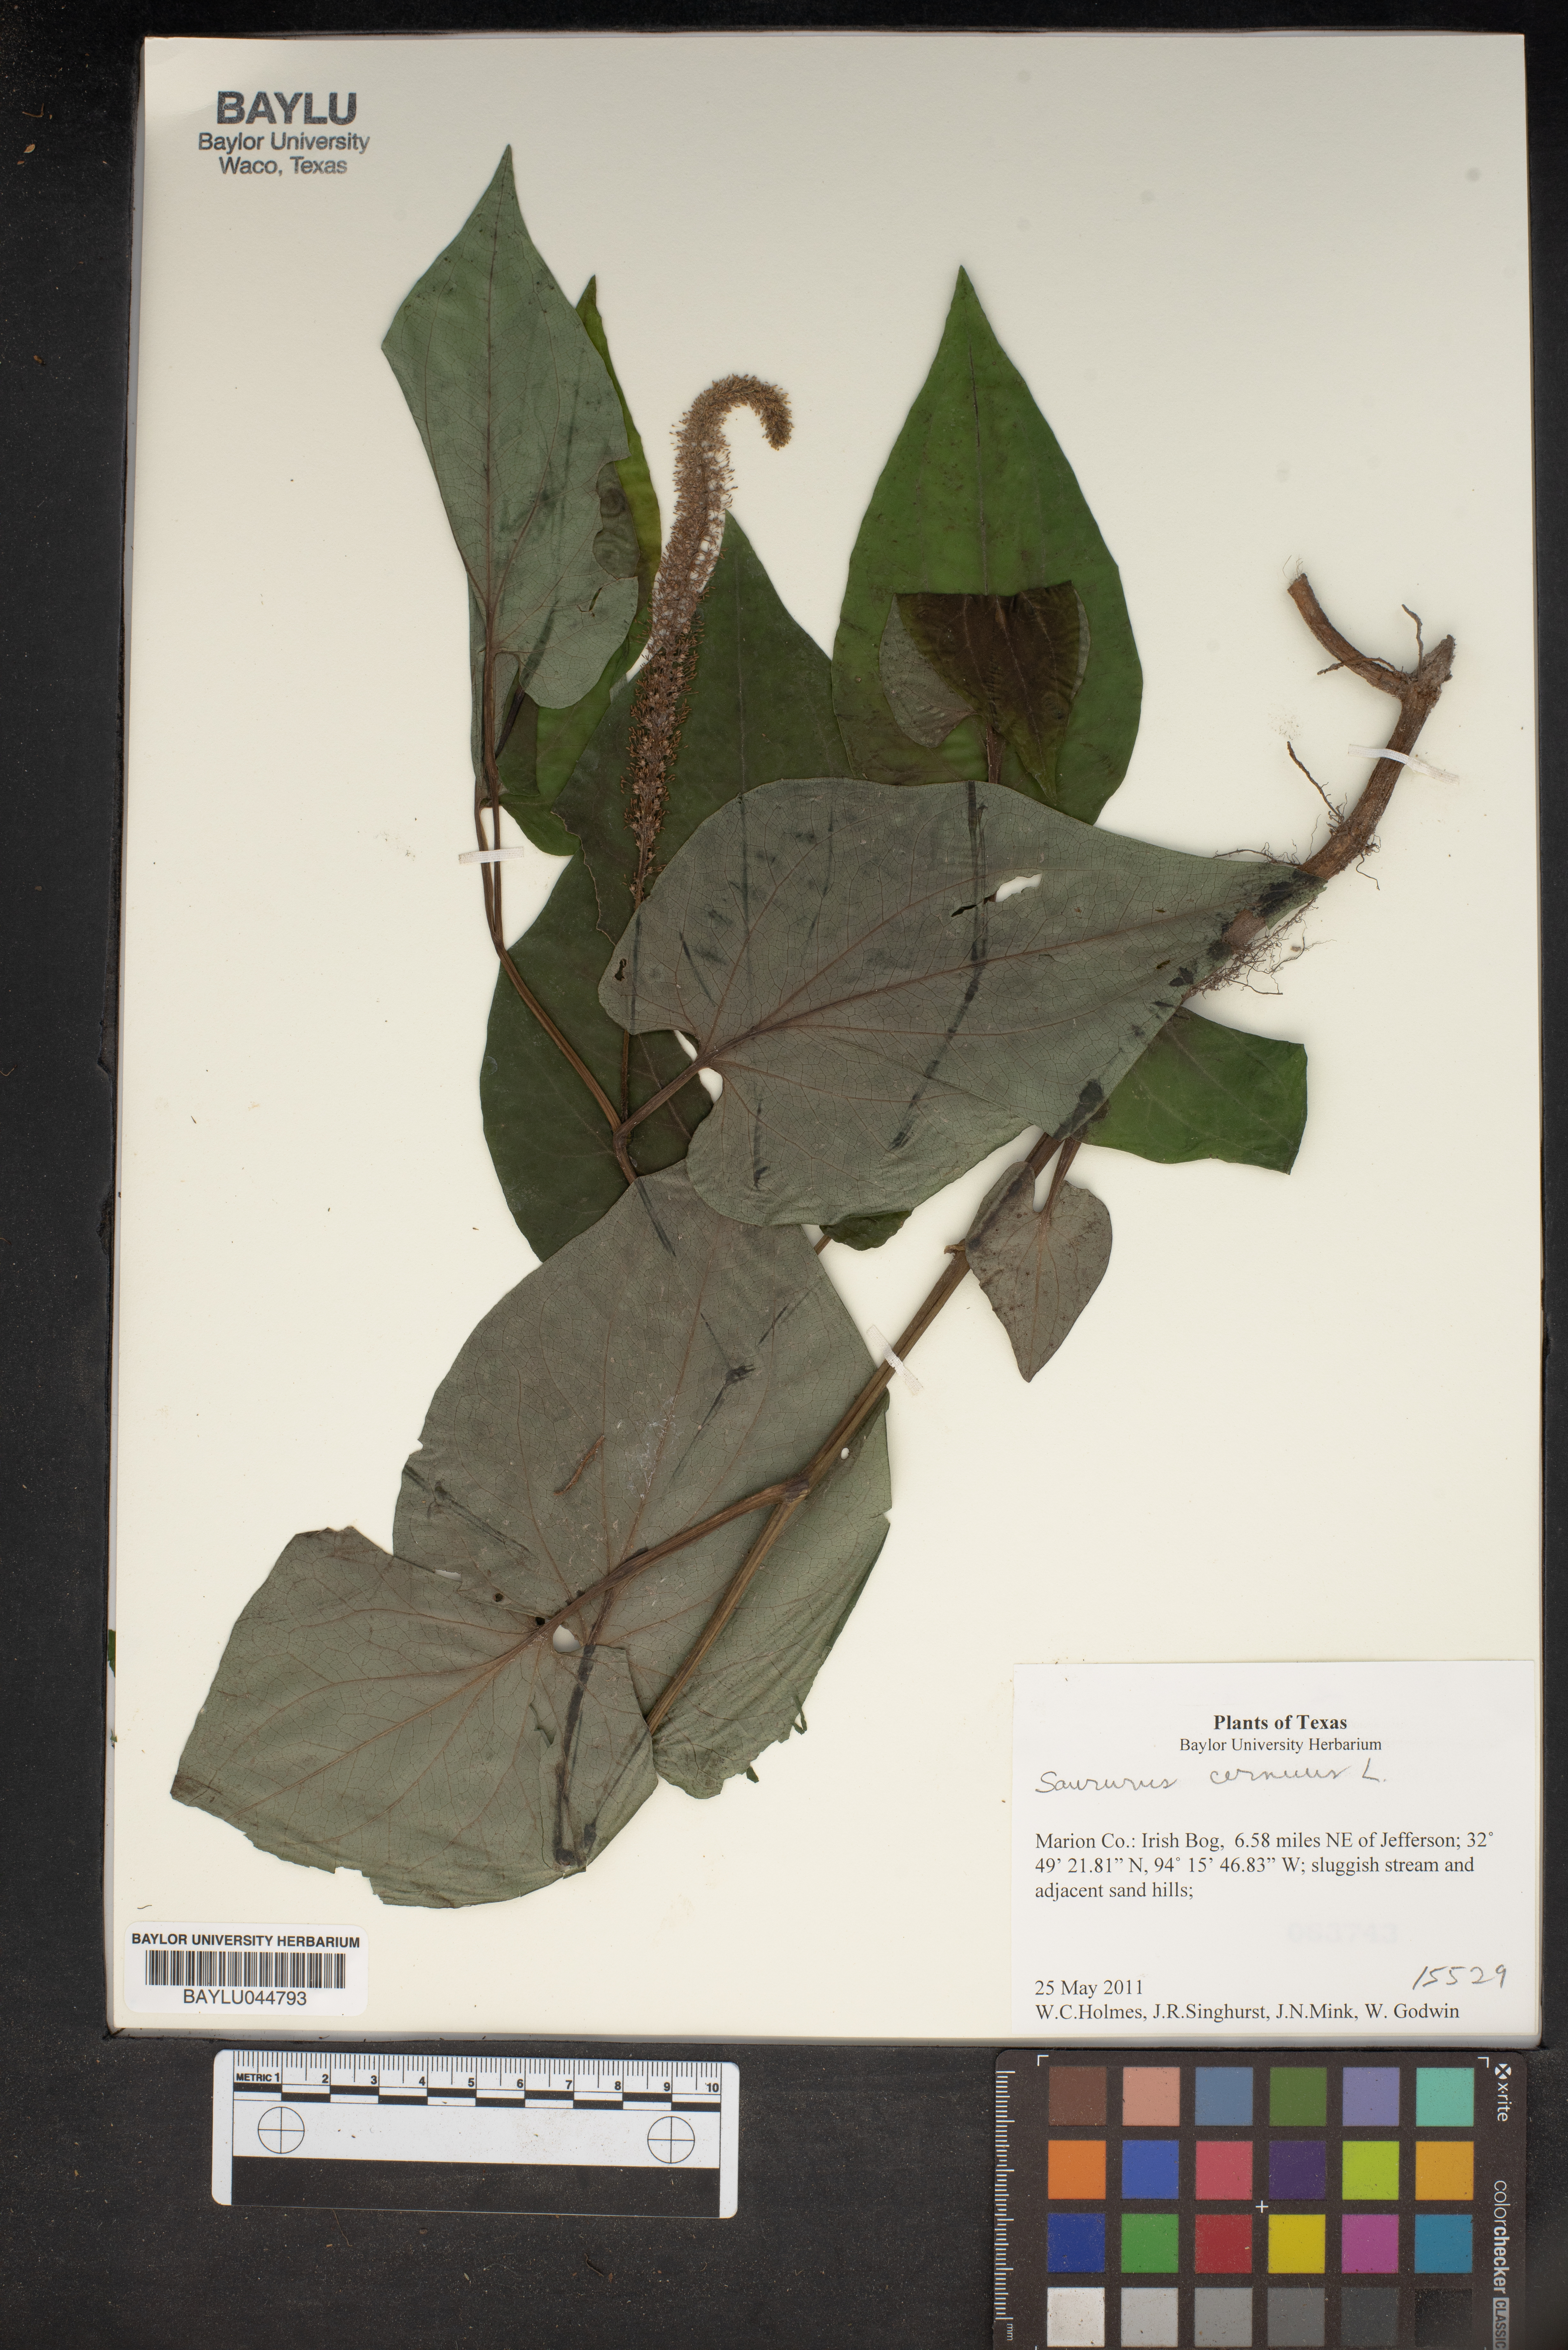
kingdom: Plantae
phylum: Tracheophyta
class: Magnoliopsida
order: Piperales
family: Saururaceae
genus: Saururus
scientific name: Saururus cernuus
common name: Lizard's-tail
